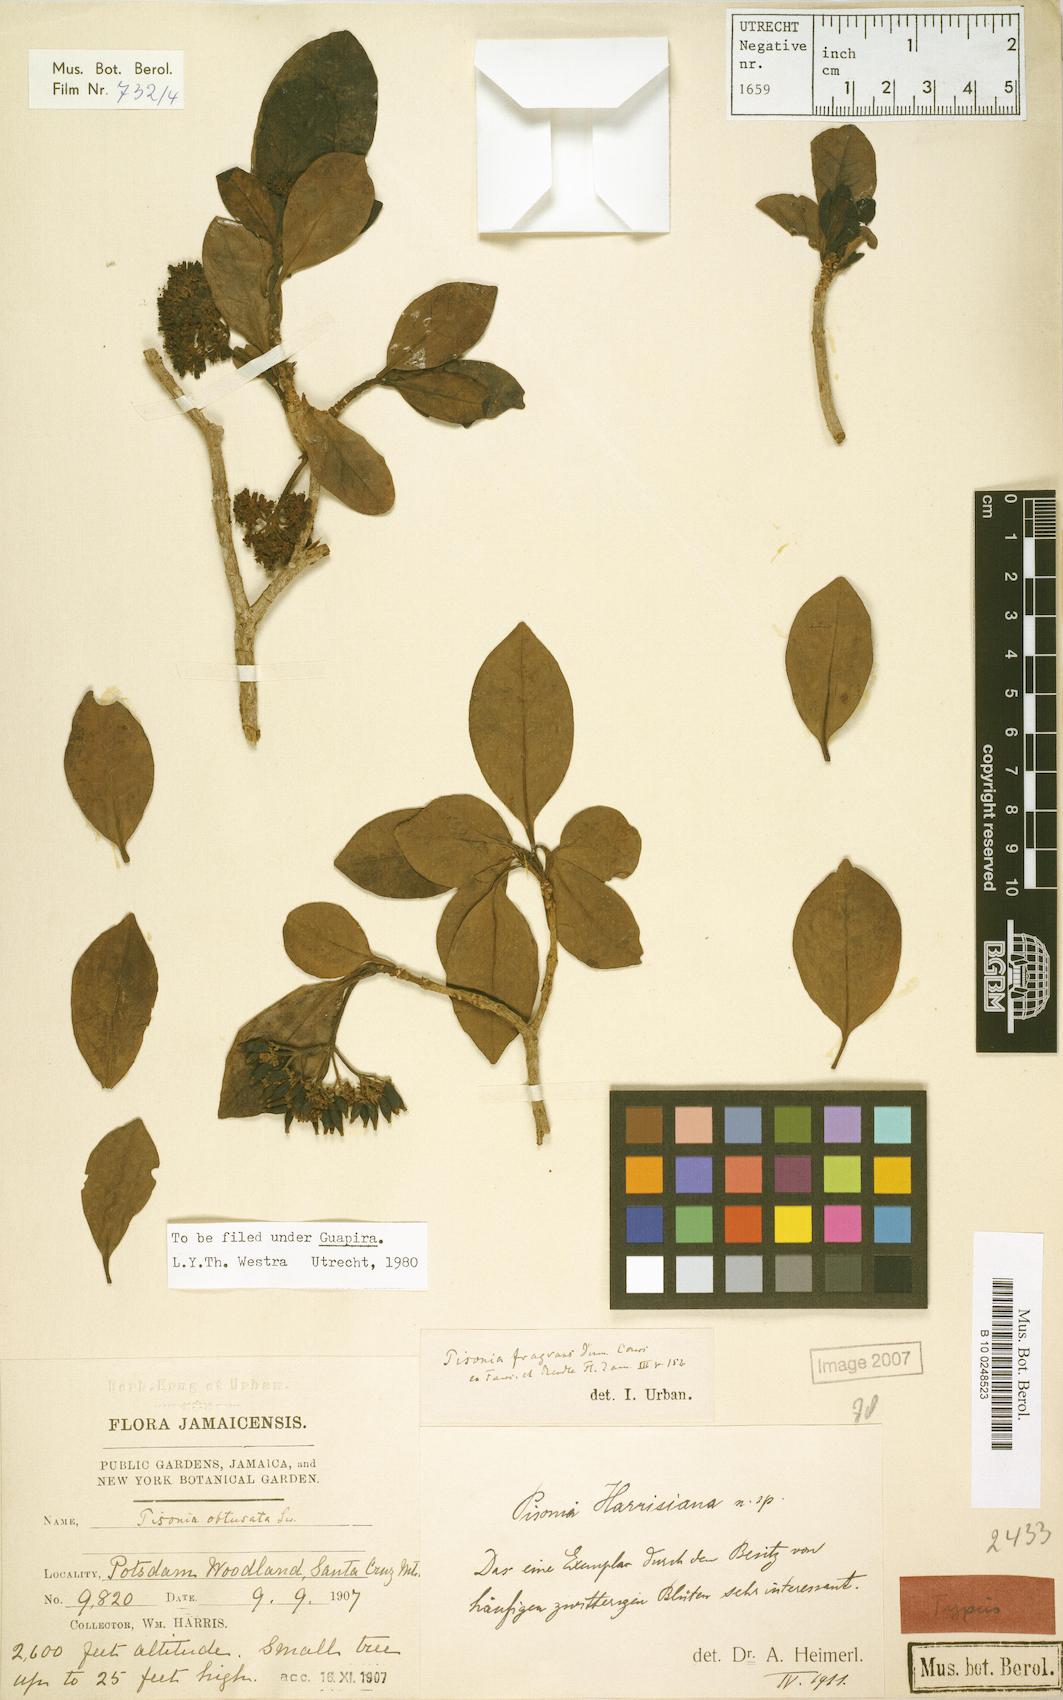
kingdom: Plantae
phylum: Tracheophyta
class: Magnoliopsida
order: Caryophyllales
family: Nyctaginaceae
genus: Guapira
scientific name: Guapira fragrans
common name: Black loblolly tree
